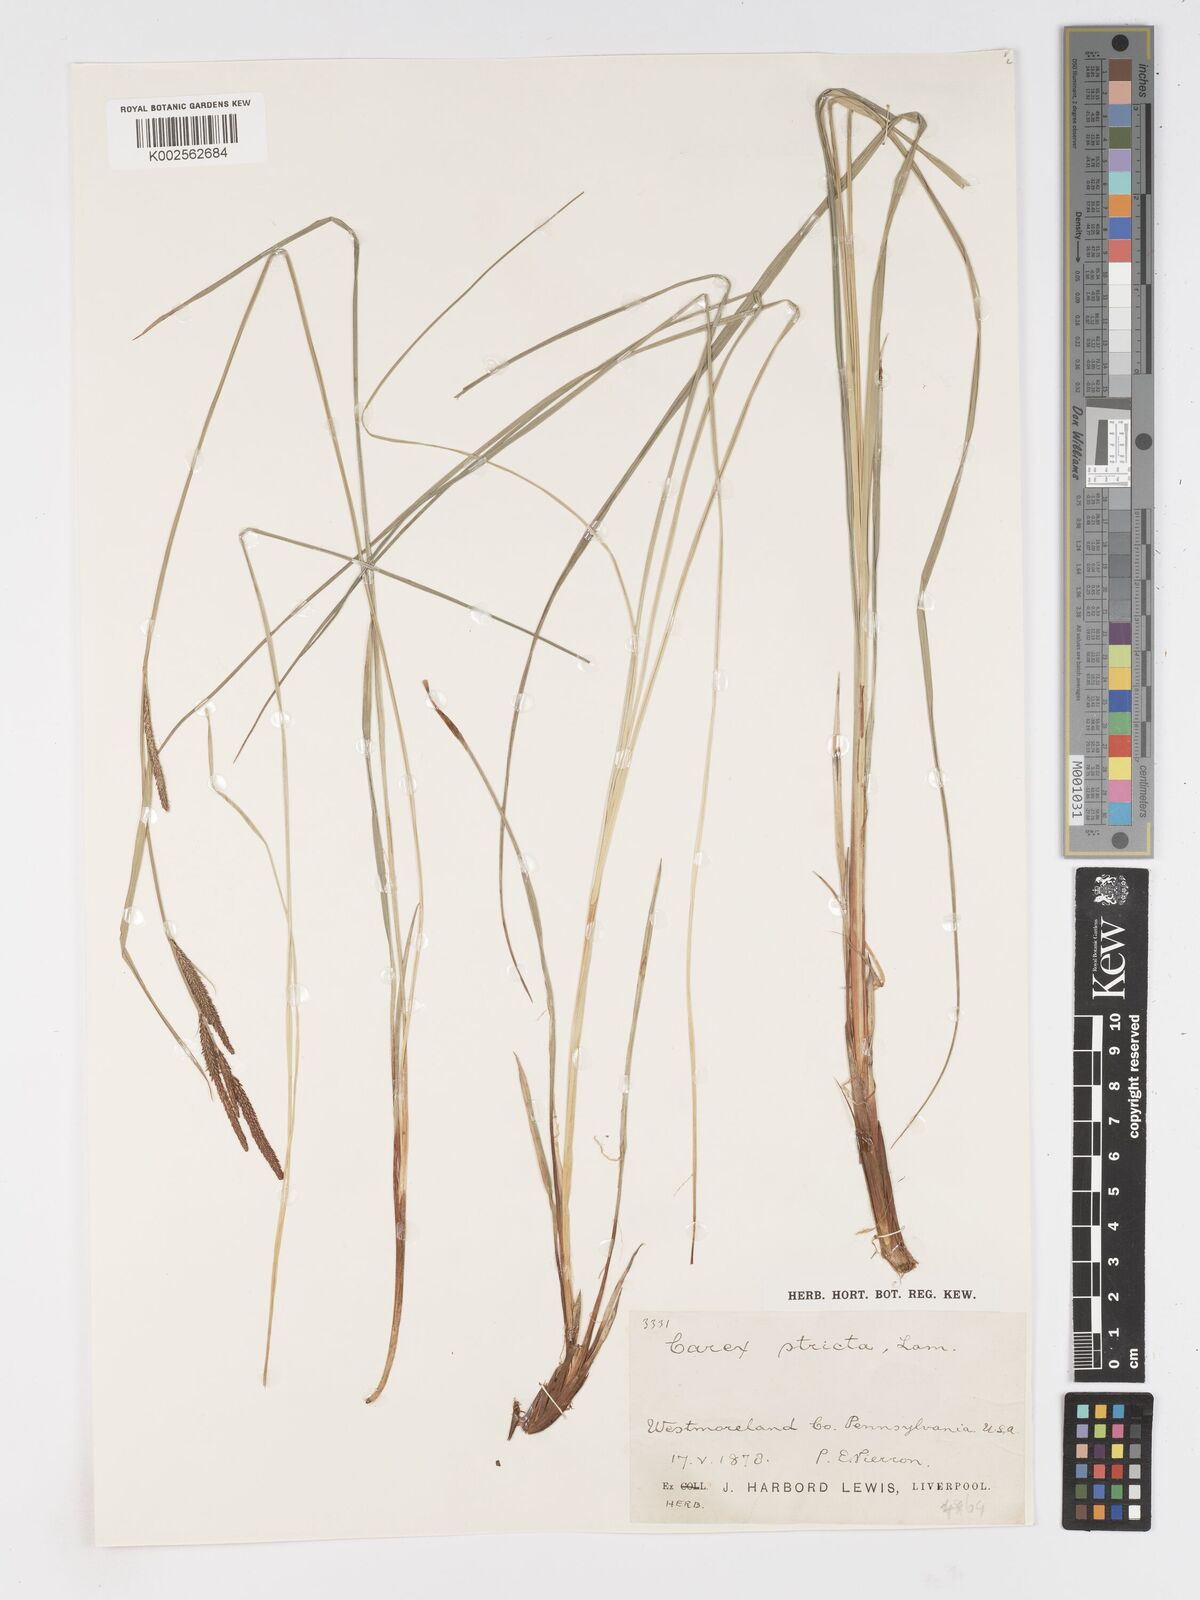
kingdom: Plantae
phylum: Tracheophyta
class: Liliopsida
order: Poales
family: Cyperaceae
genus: Carex
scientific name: Carex stricta
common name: Hummock sedge
